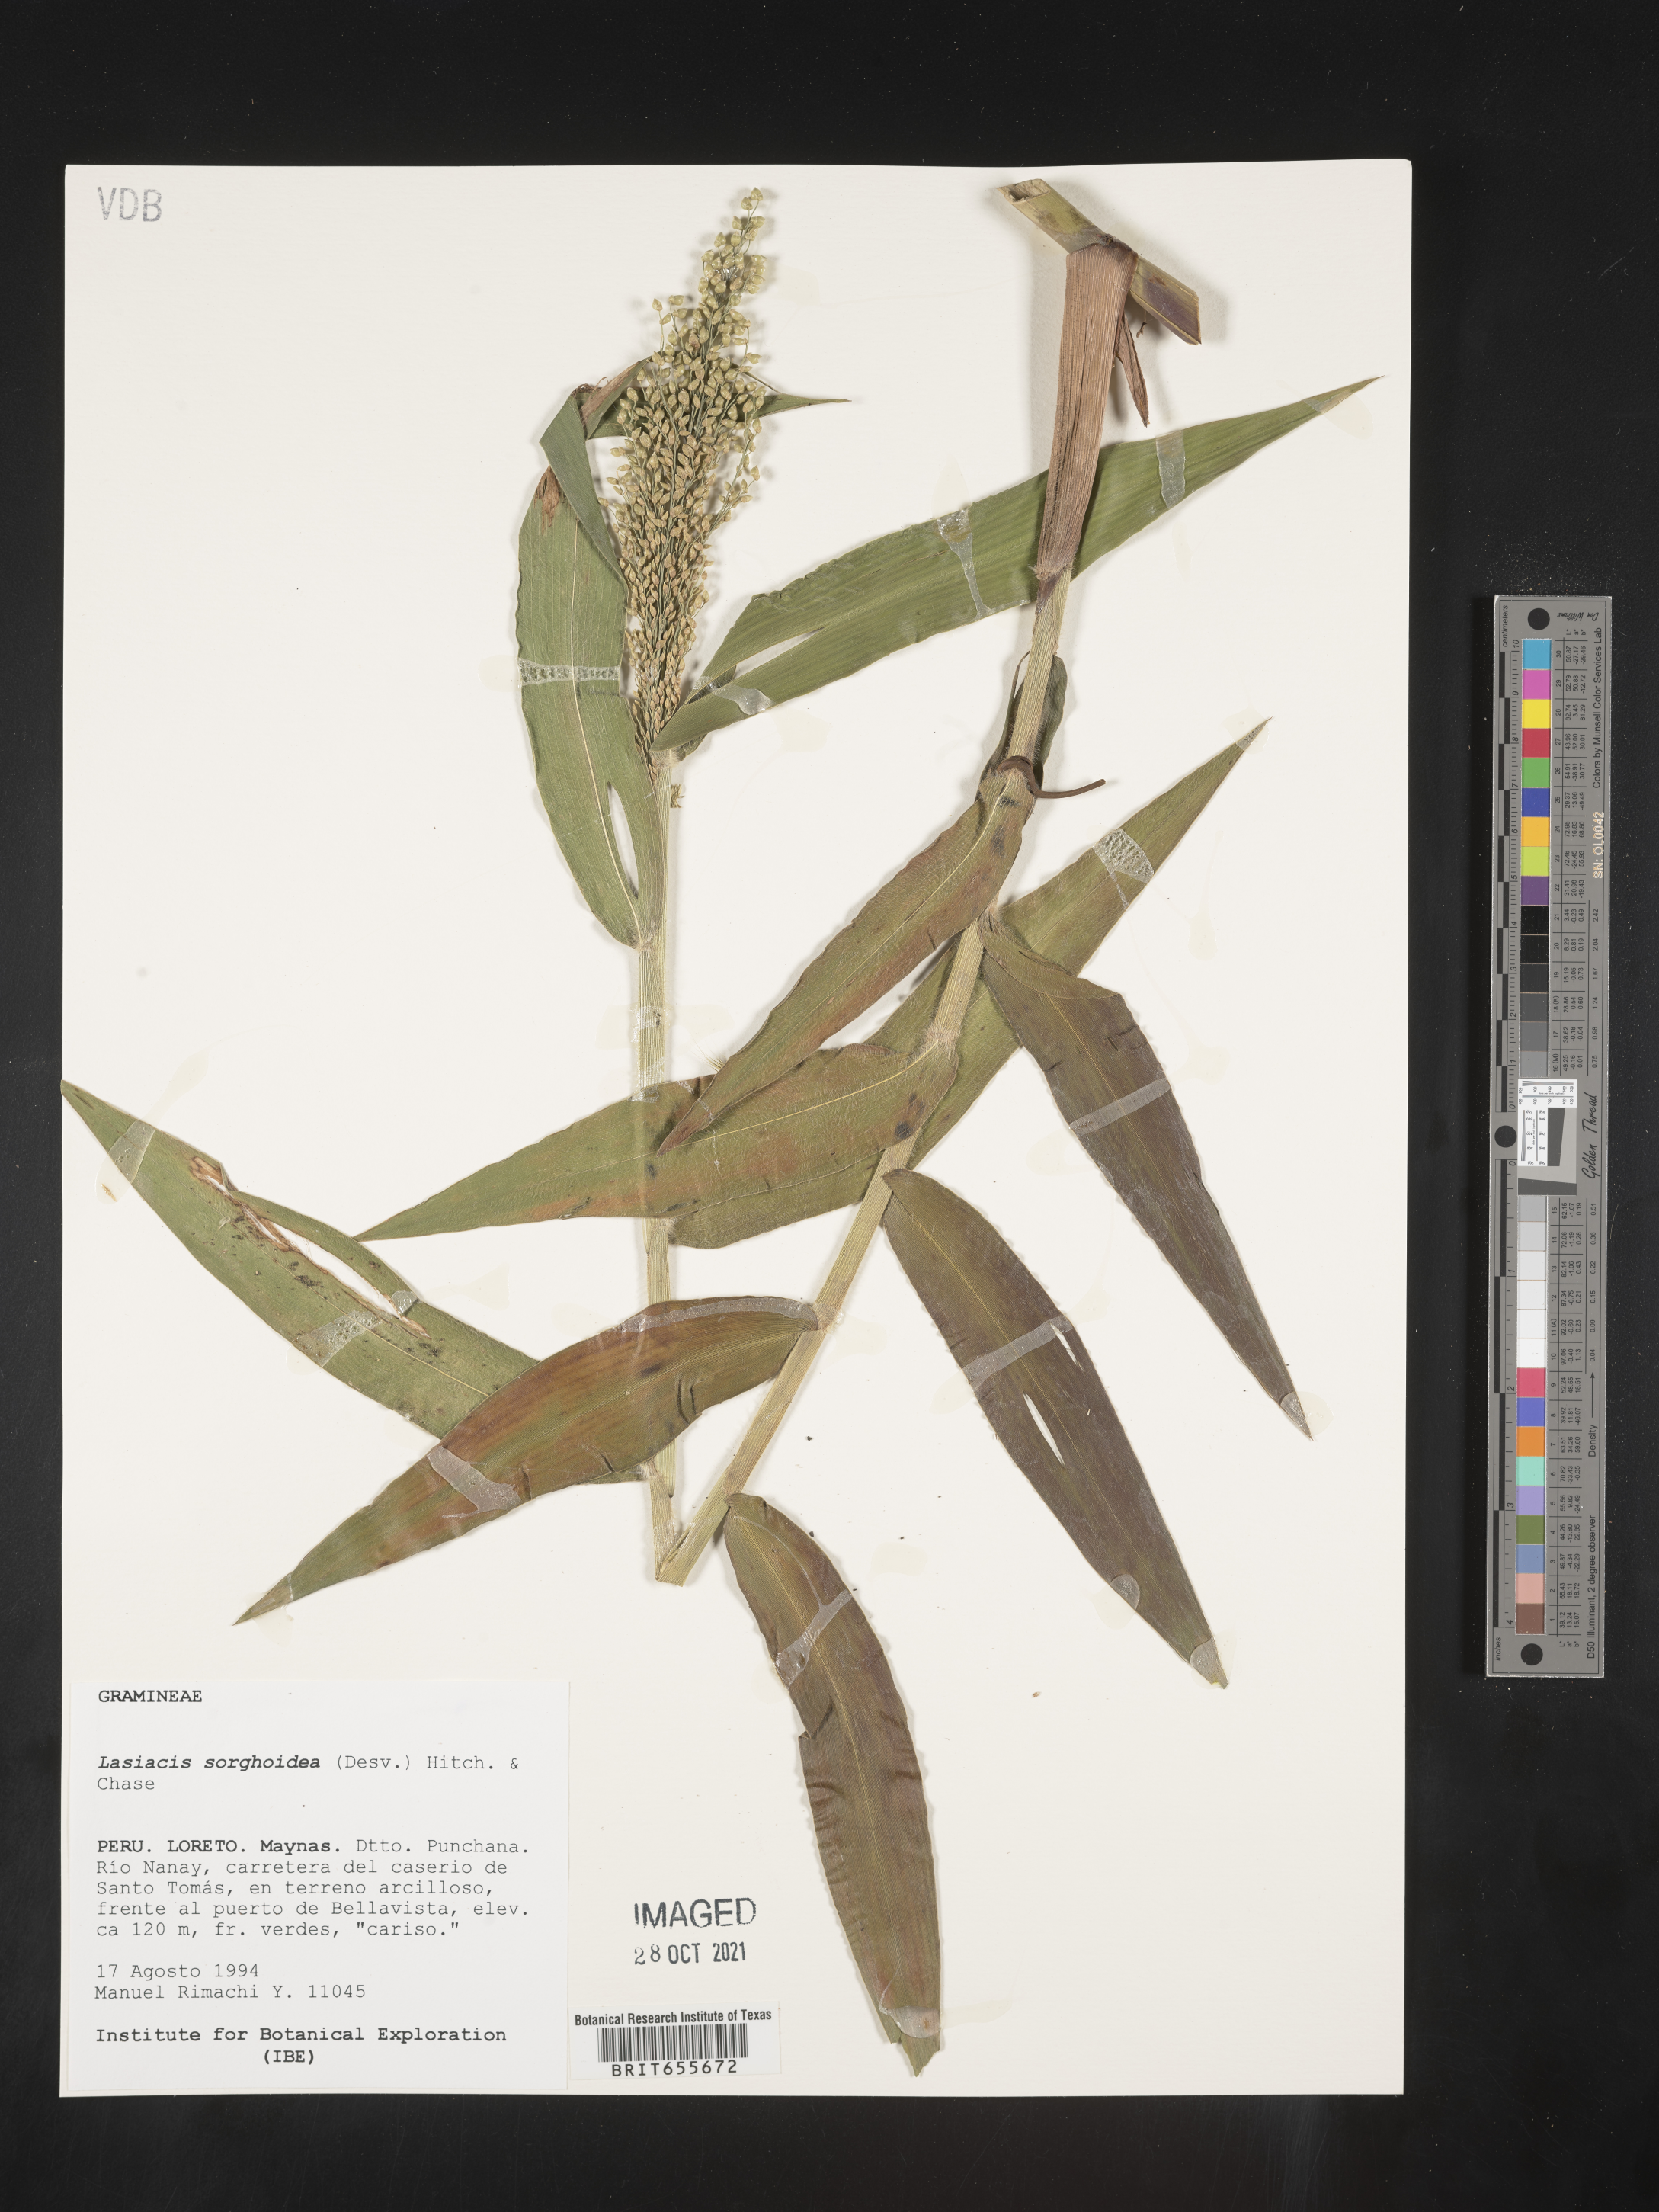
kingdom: Plantae
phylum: Tracheophyta
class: Liliopsida
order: Poales
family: Poaceae
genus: Lasiacis
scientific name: Lasiacis
